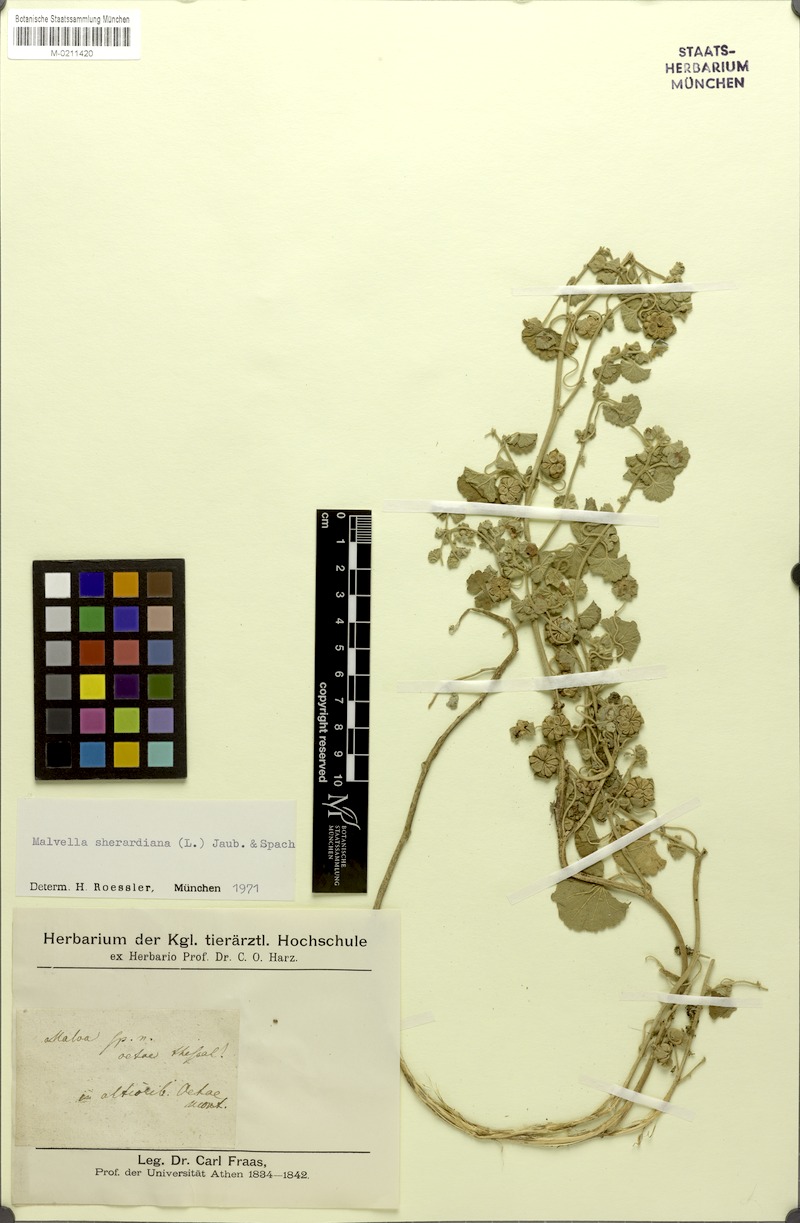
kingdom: Plantae
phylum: Tracheophyta
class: Magnoliopsida
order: Malvales
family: Malvaceae
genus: Malvella
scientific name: Malvella sherardiana
